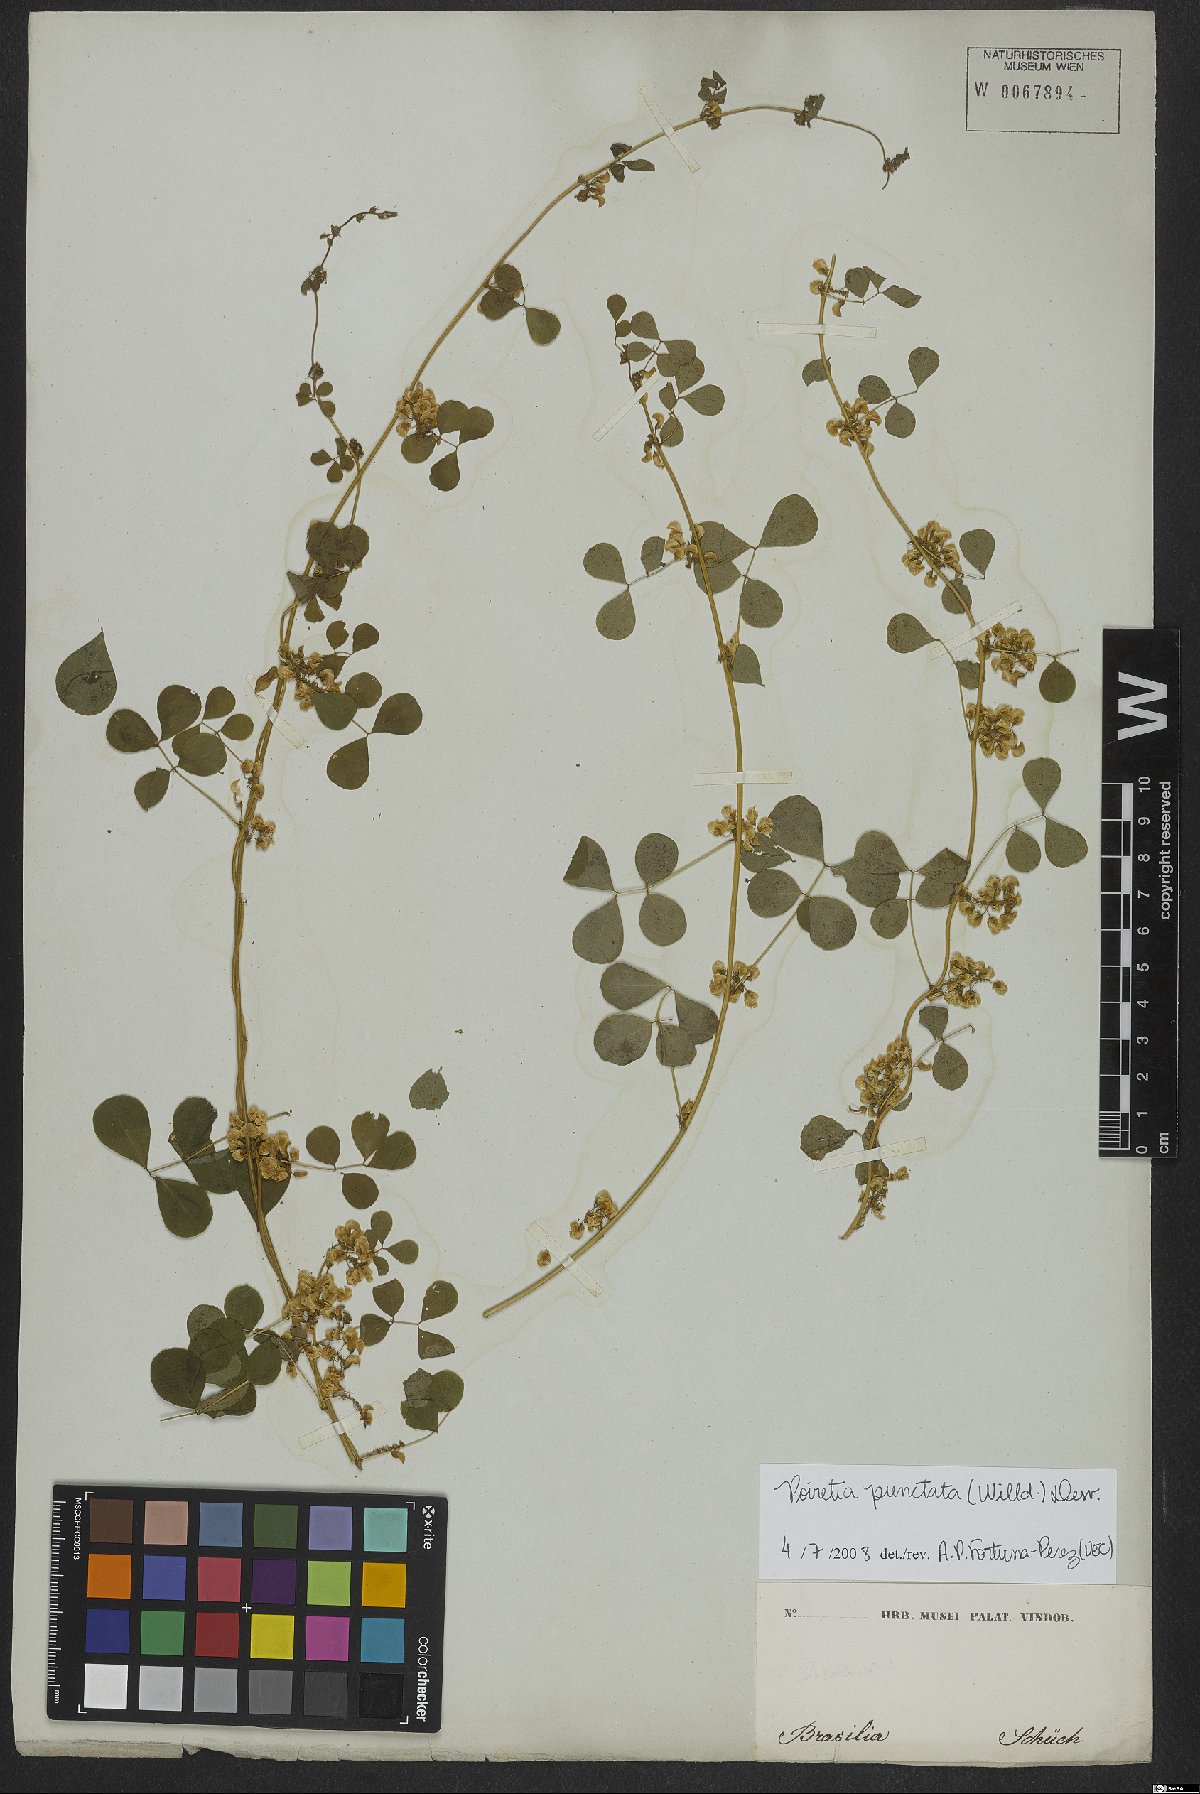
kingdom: Plantae
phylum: Tracheophyta
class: Magnoliopsida
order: Fabales
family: Fabaceae
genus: Poiretia
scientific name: Poiretia punctata
